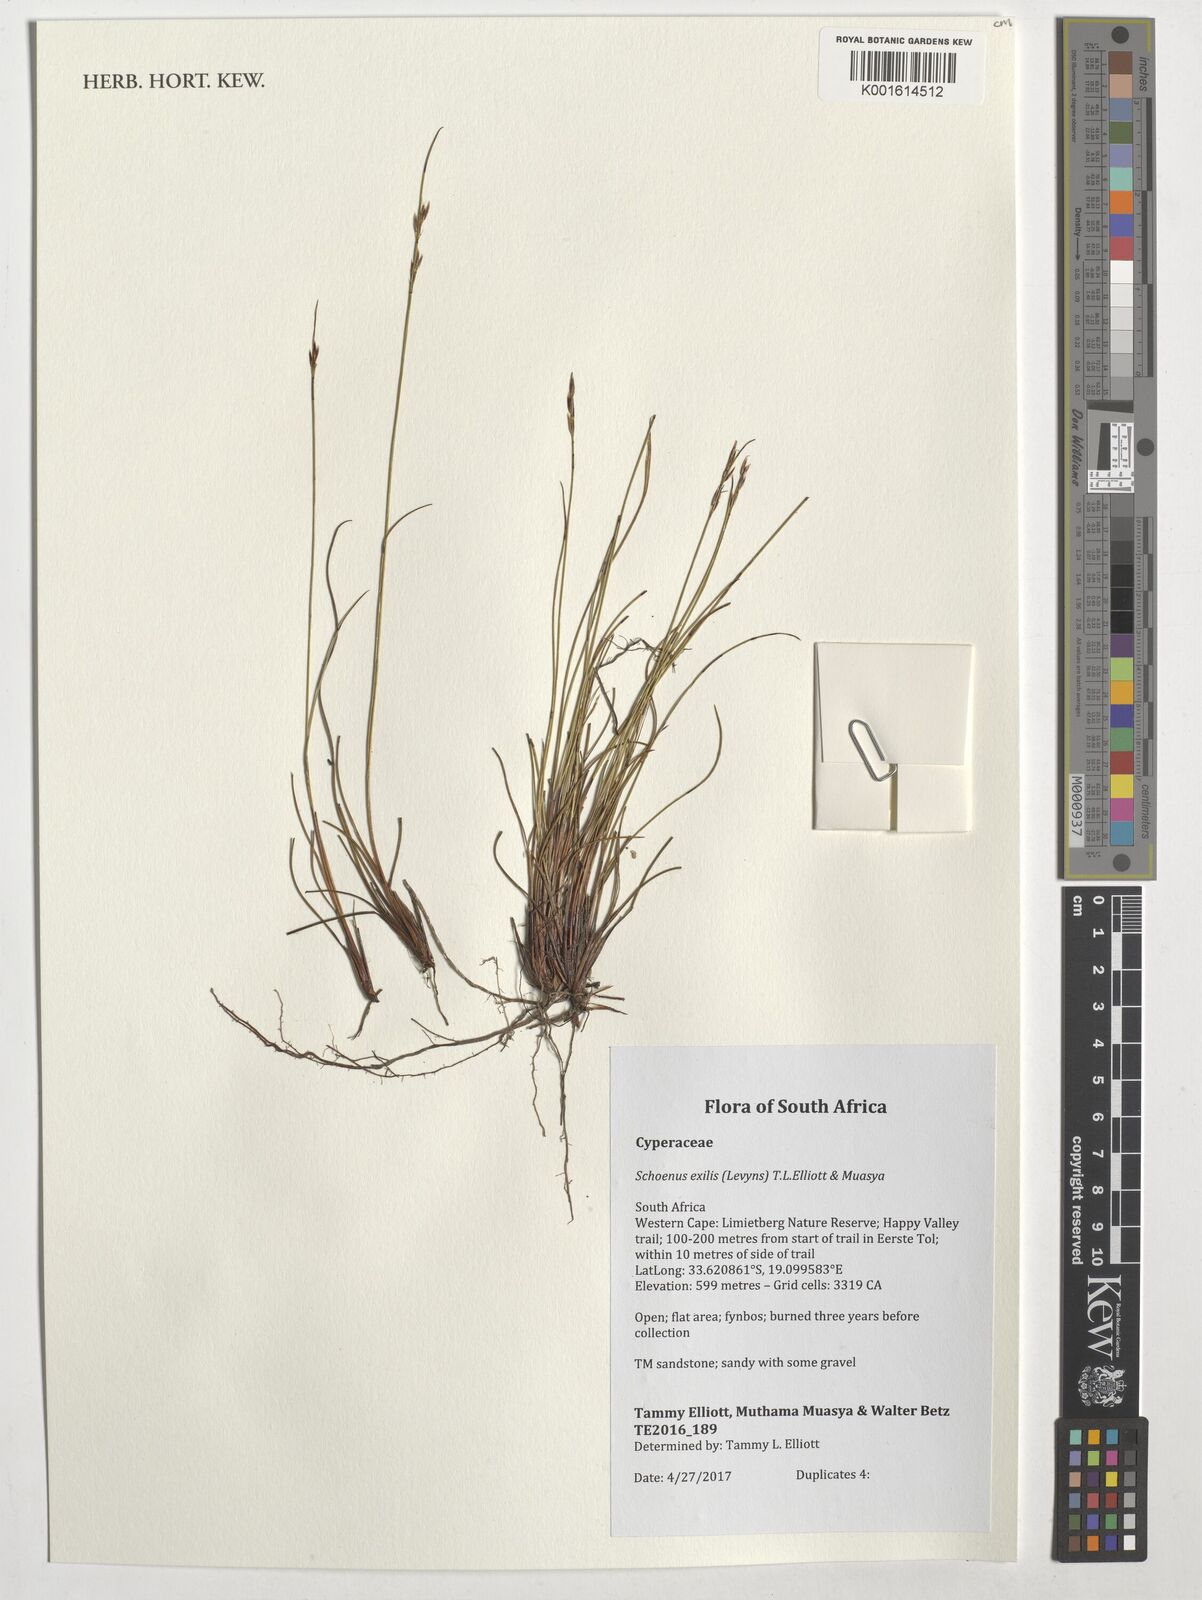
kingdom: Plantae
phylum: Tracheophyta
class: Liliopsida
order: Poales
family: Cyperaceae
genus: Schoenus
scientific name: Schoenus exilis
